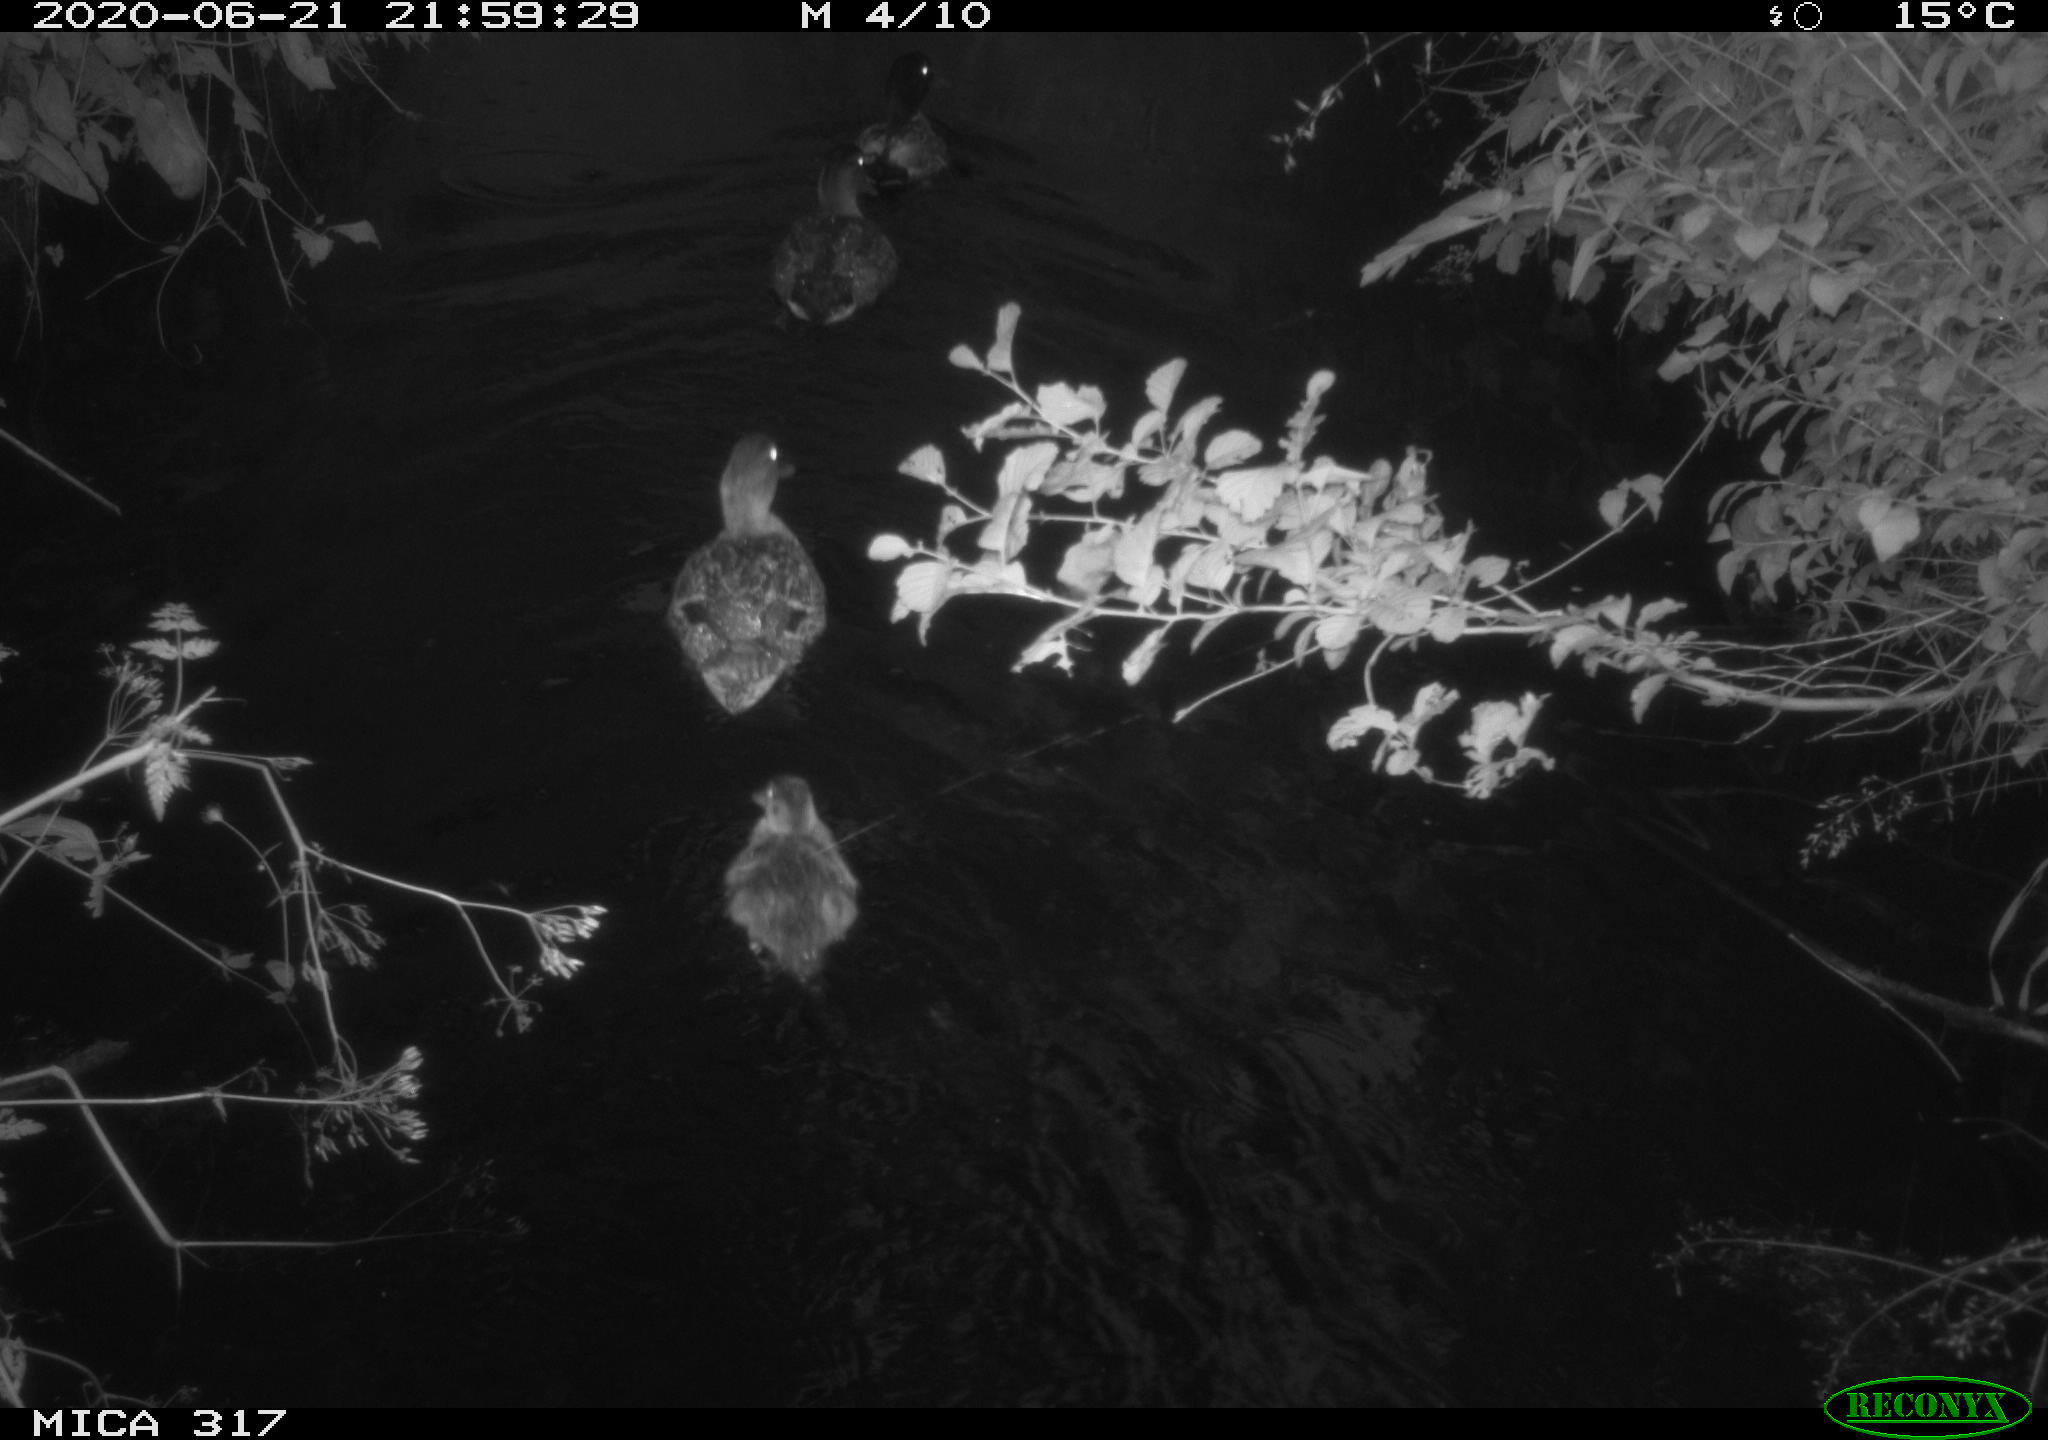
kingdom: Animalia
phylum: Chordata
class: Aves
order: Anseriformes
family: Anatidae
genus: Anas
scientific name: Anas platyrhynchos
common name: Mallard
